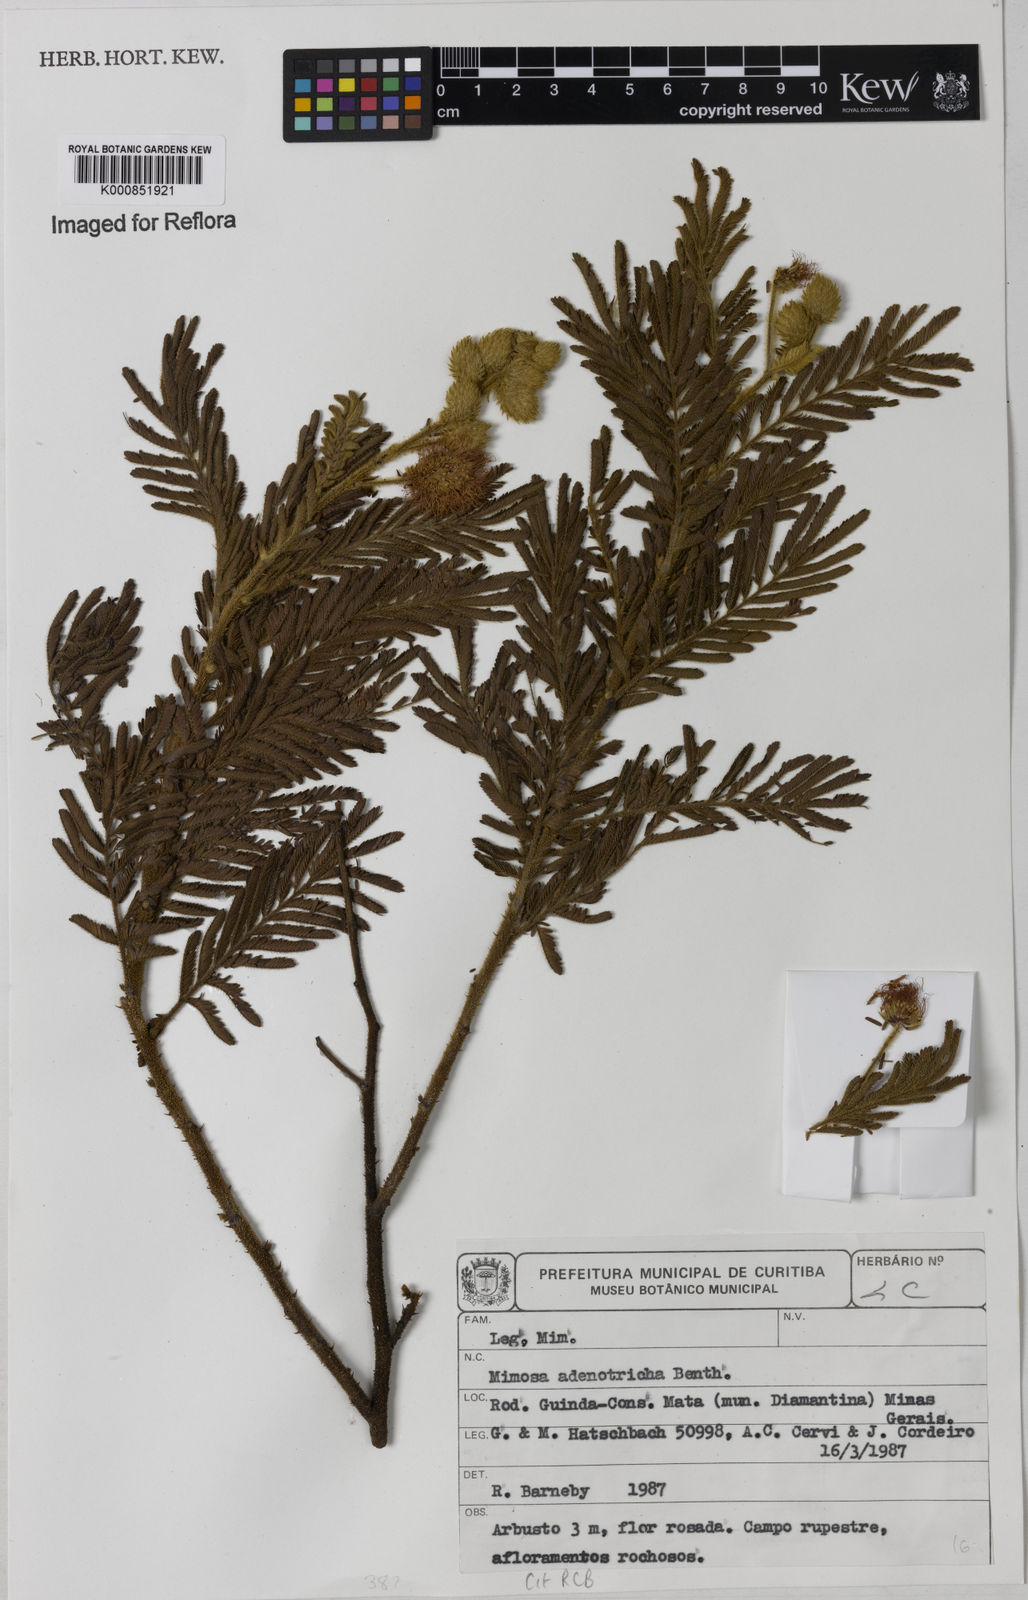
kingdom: Plantae
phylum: Tracheophyta
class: Magnoliopsida
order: Fabales
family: Fabaceae
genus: Mimosa
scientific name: Mimosa adenotricha
